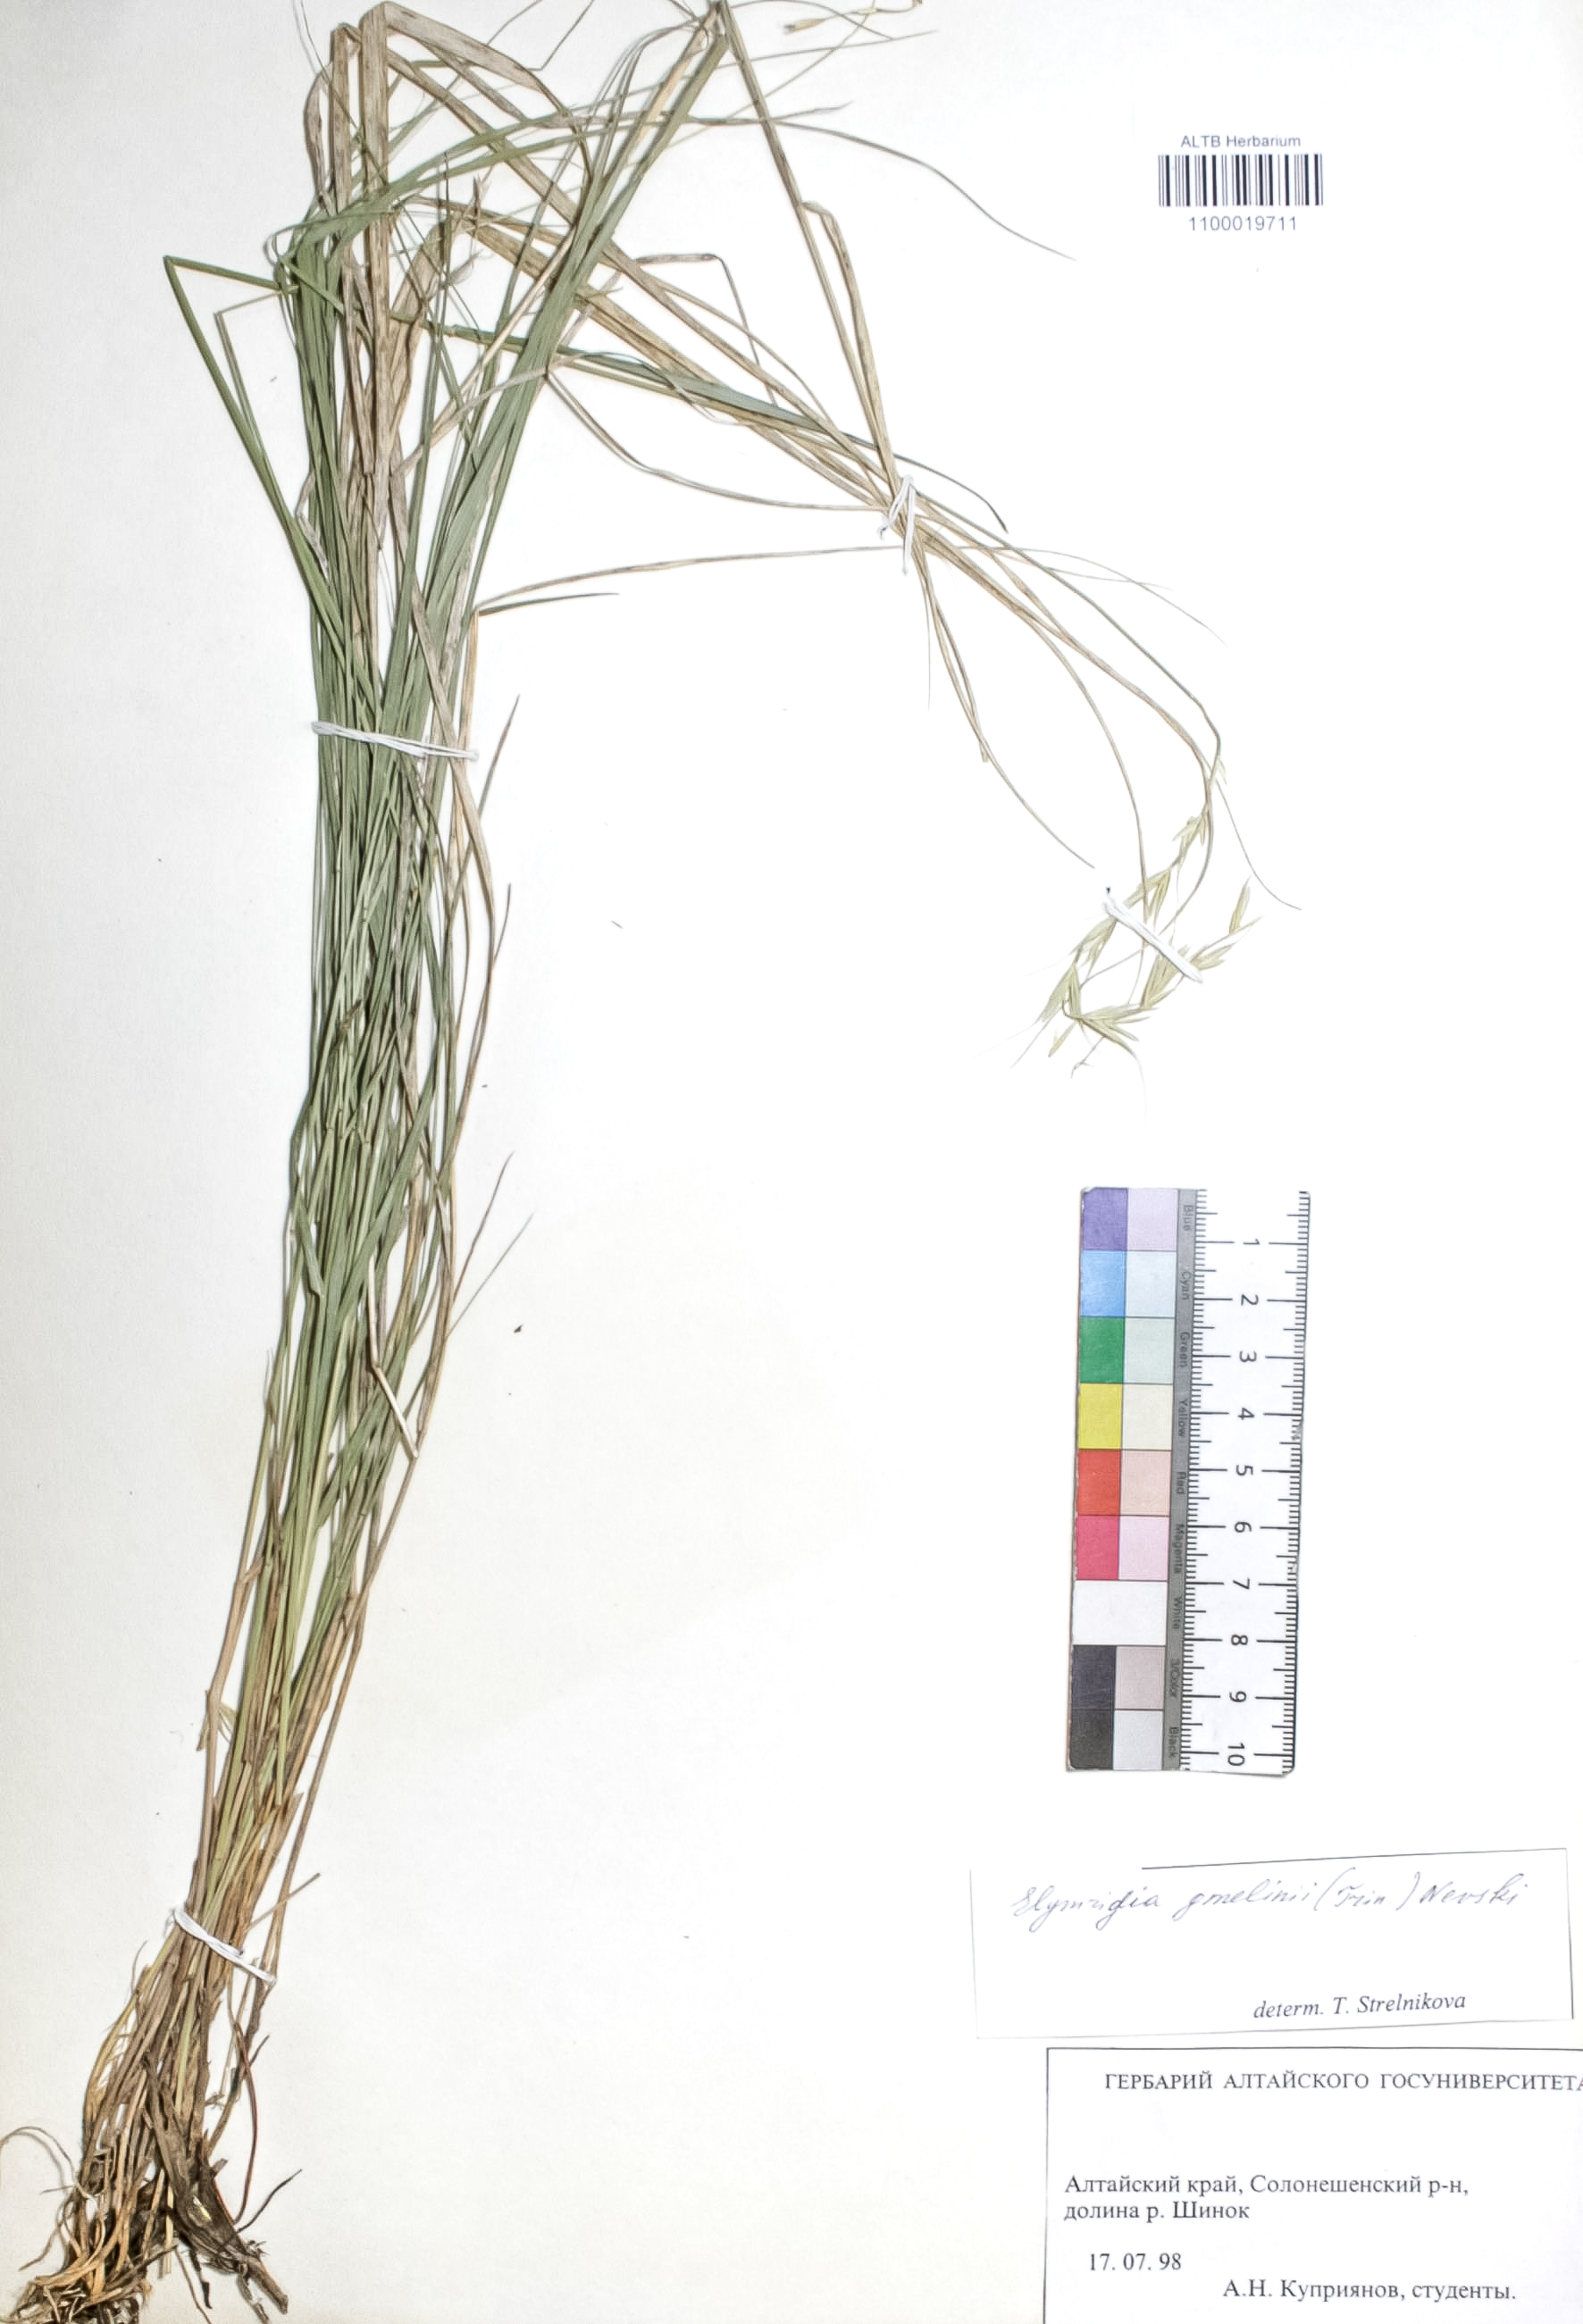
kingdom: Plantae
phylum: Tracheophyta
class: Liliopsida
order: Poales
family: Poaceae
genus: Pseudoroegneria
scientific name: Pseudoroegneria reflexiaristata
